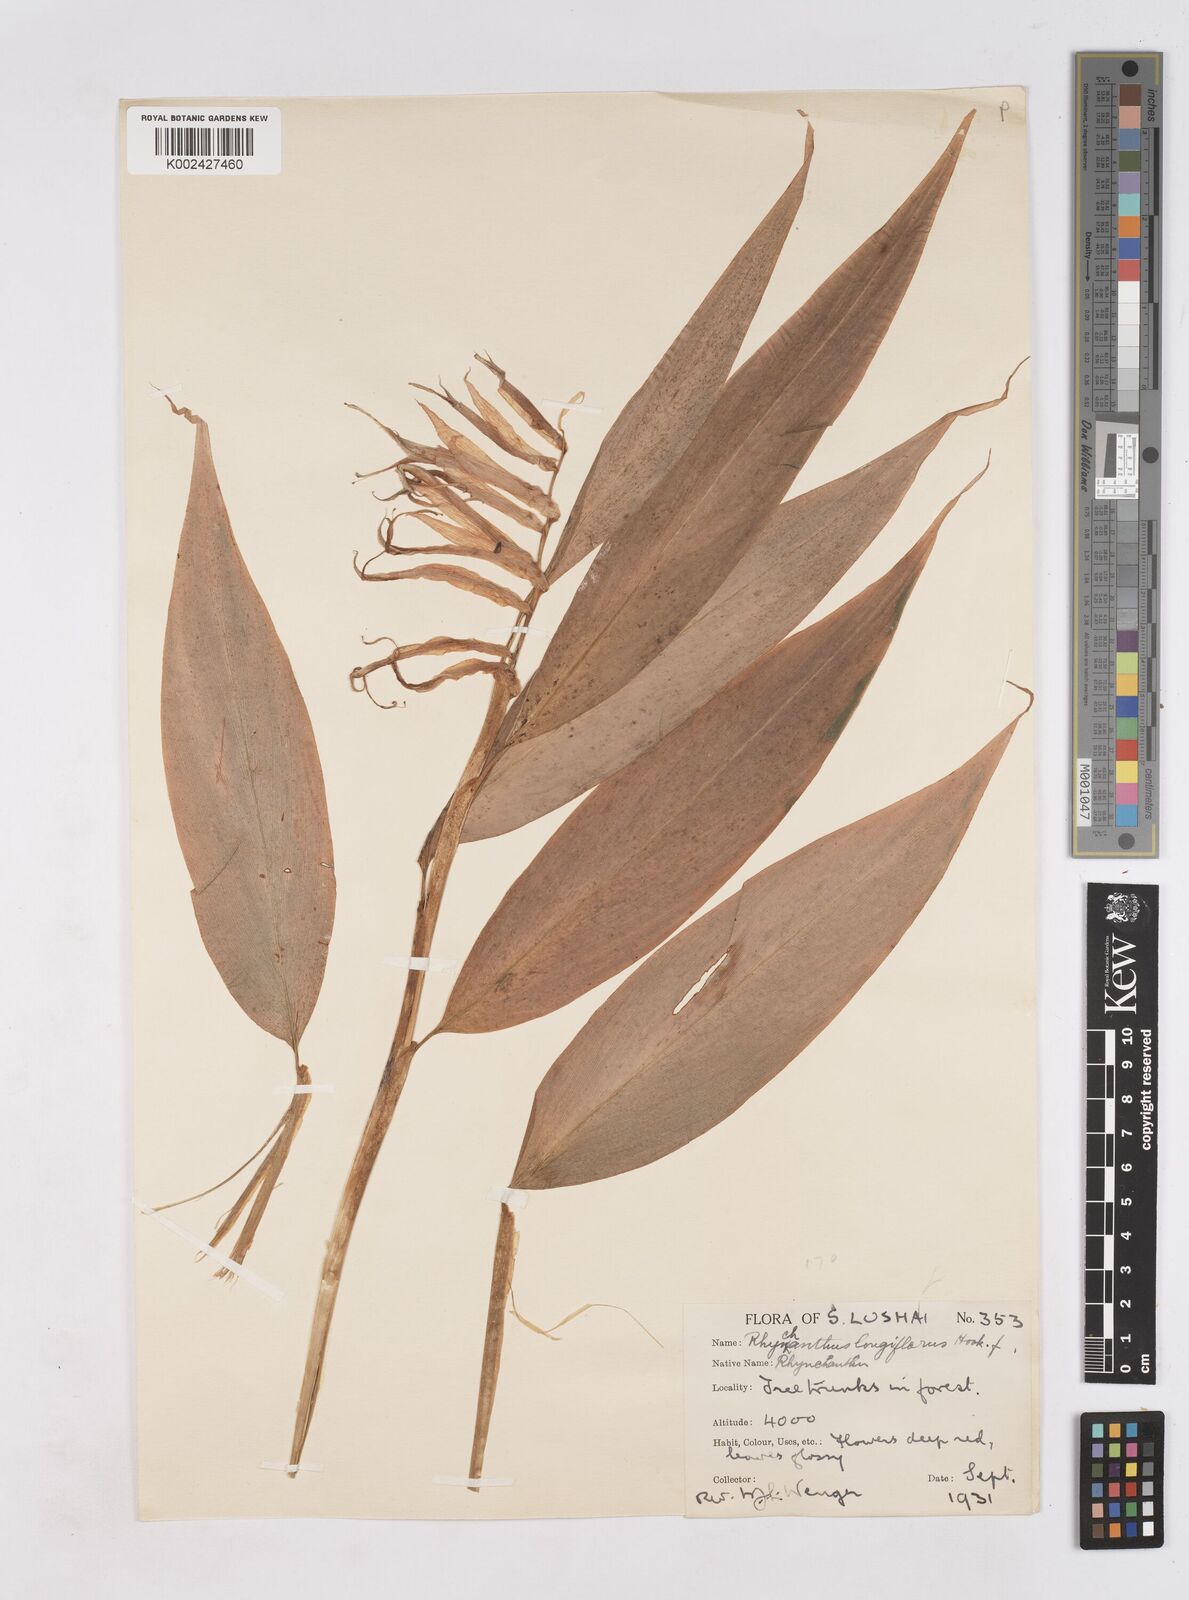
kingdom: Plantae
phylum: Tracheophyta
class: Liliopsida
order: Zingiberales
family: Zingiberaceae
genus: Rhynchanthus
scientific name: Rhynchanthus longiflorus
